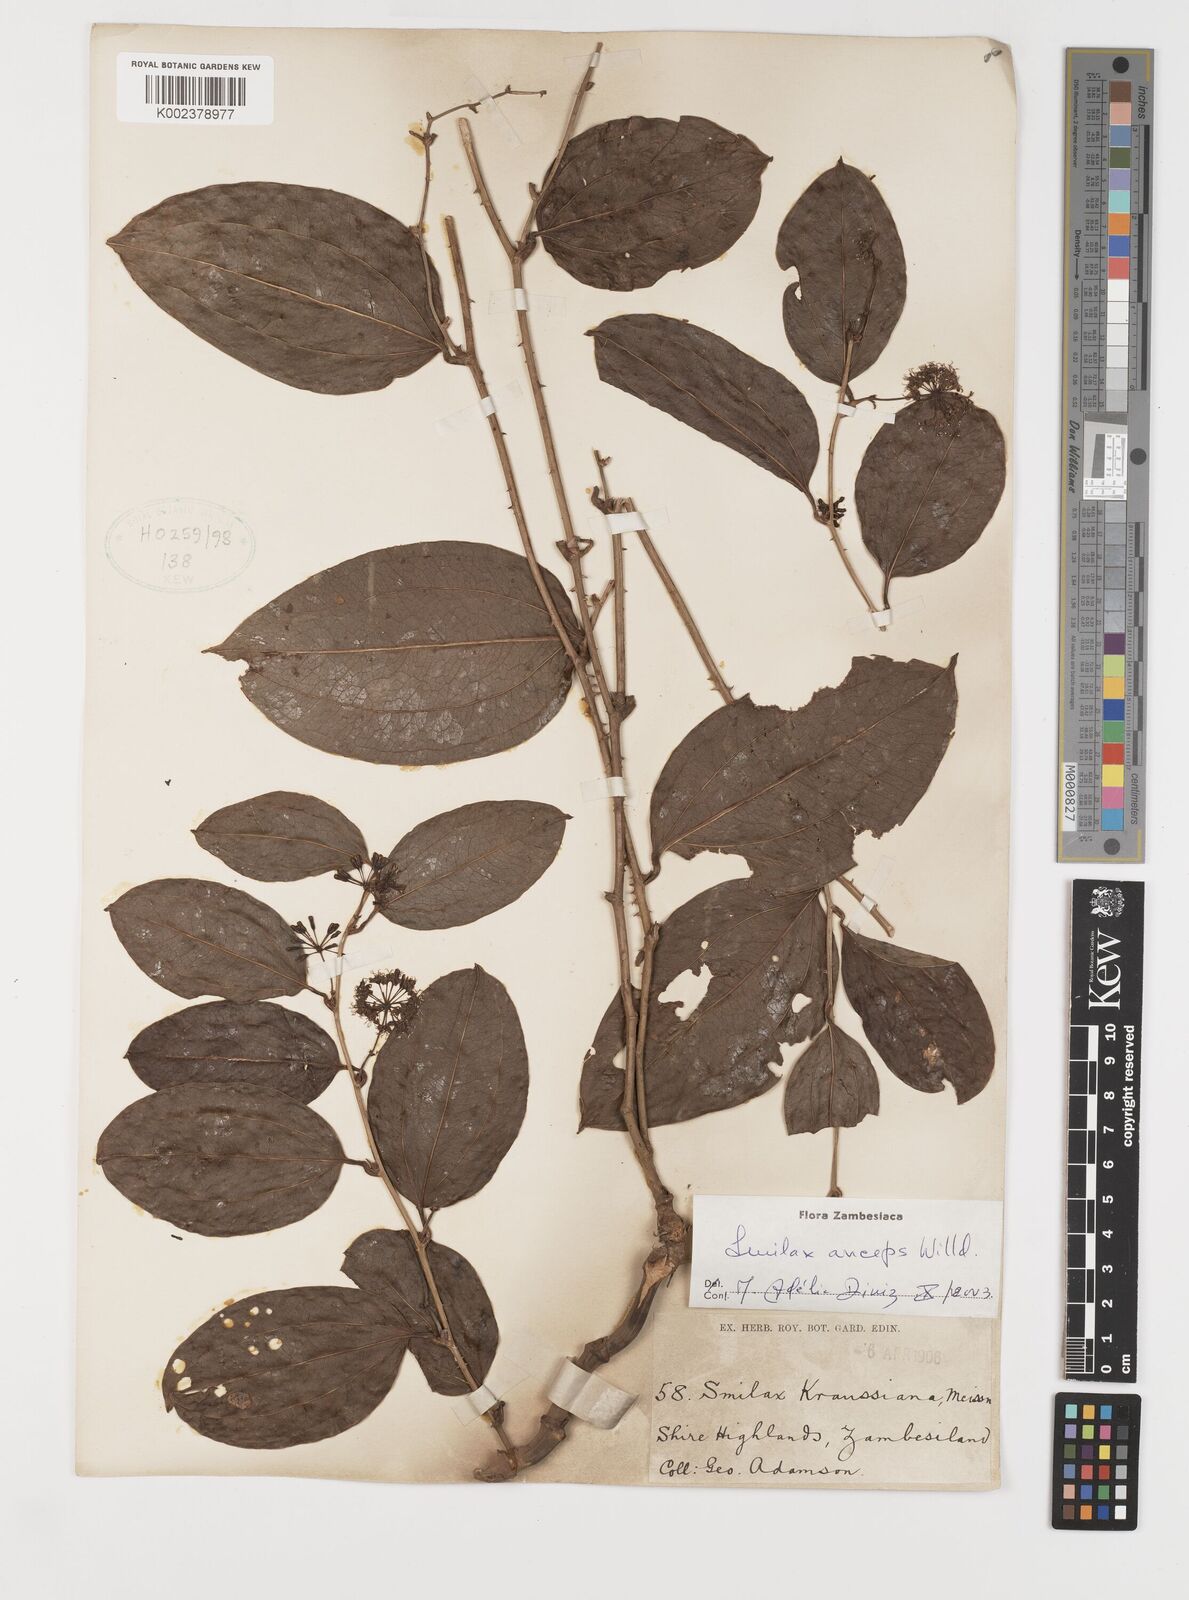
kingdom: Plantae
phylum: Tracheophyta
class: Liliopsida
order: Liliales
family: Smilacaceae
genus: Smilax
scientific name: Smilax anceps
